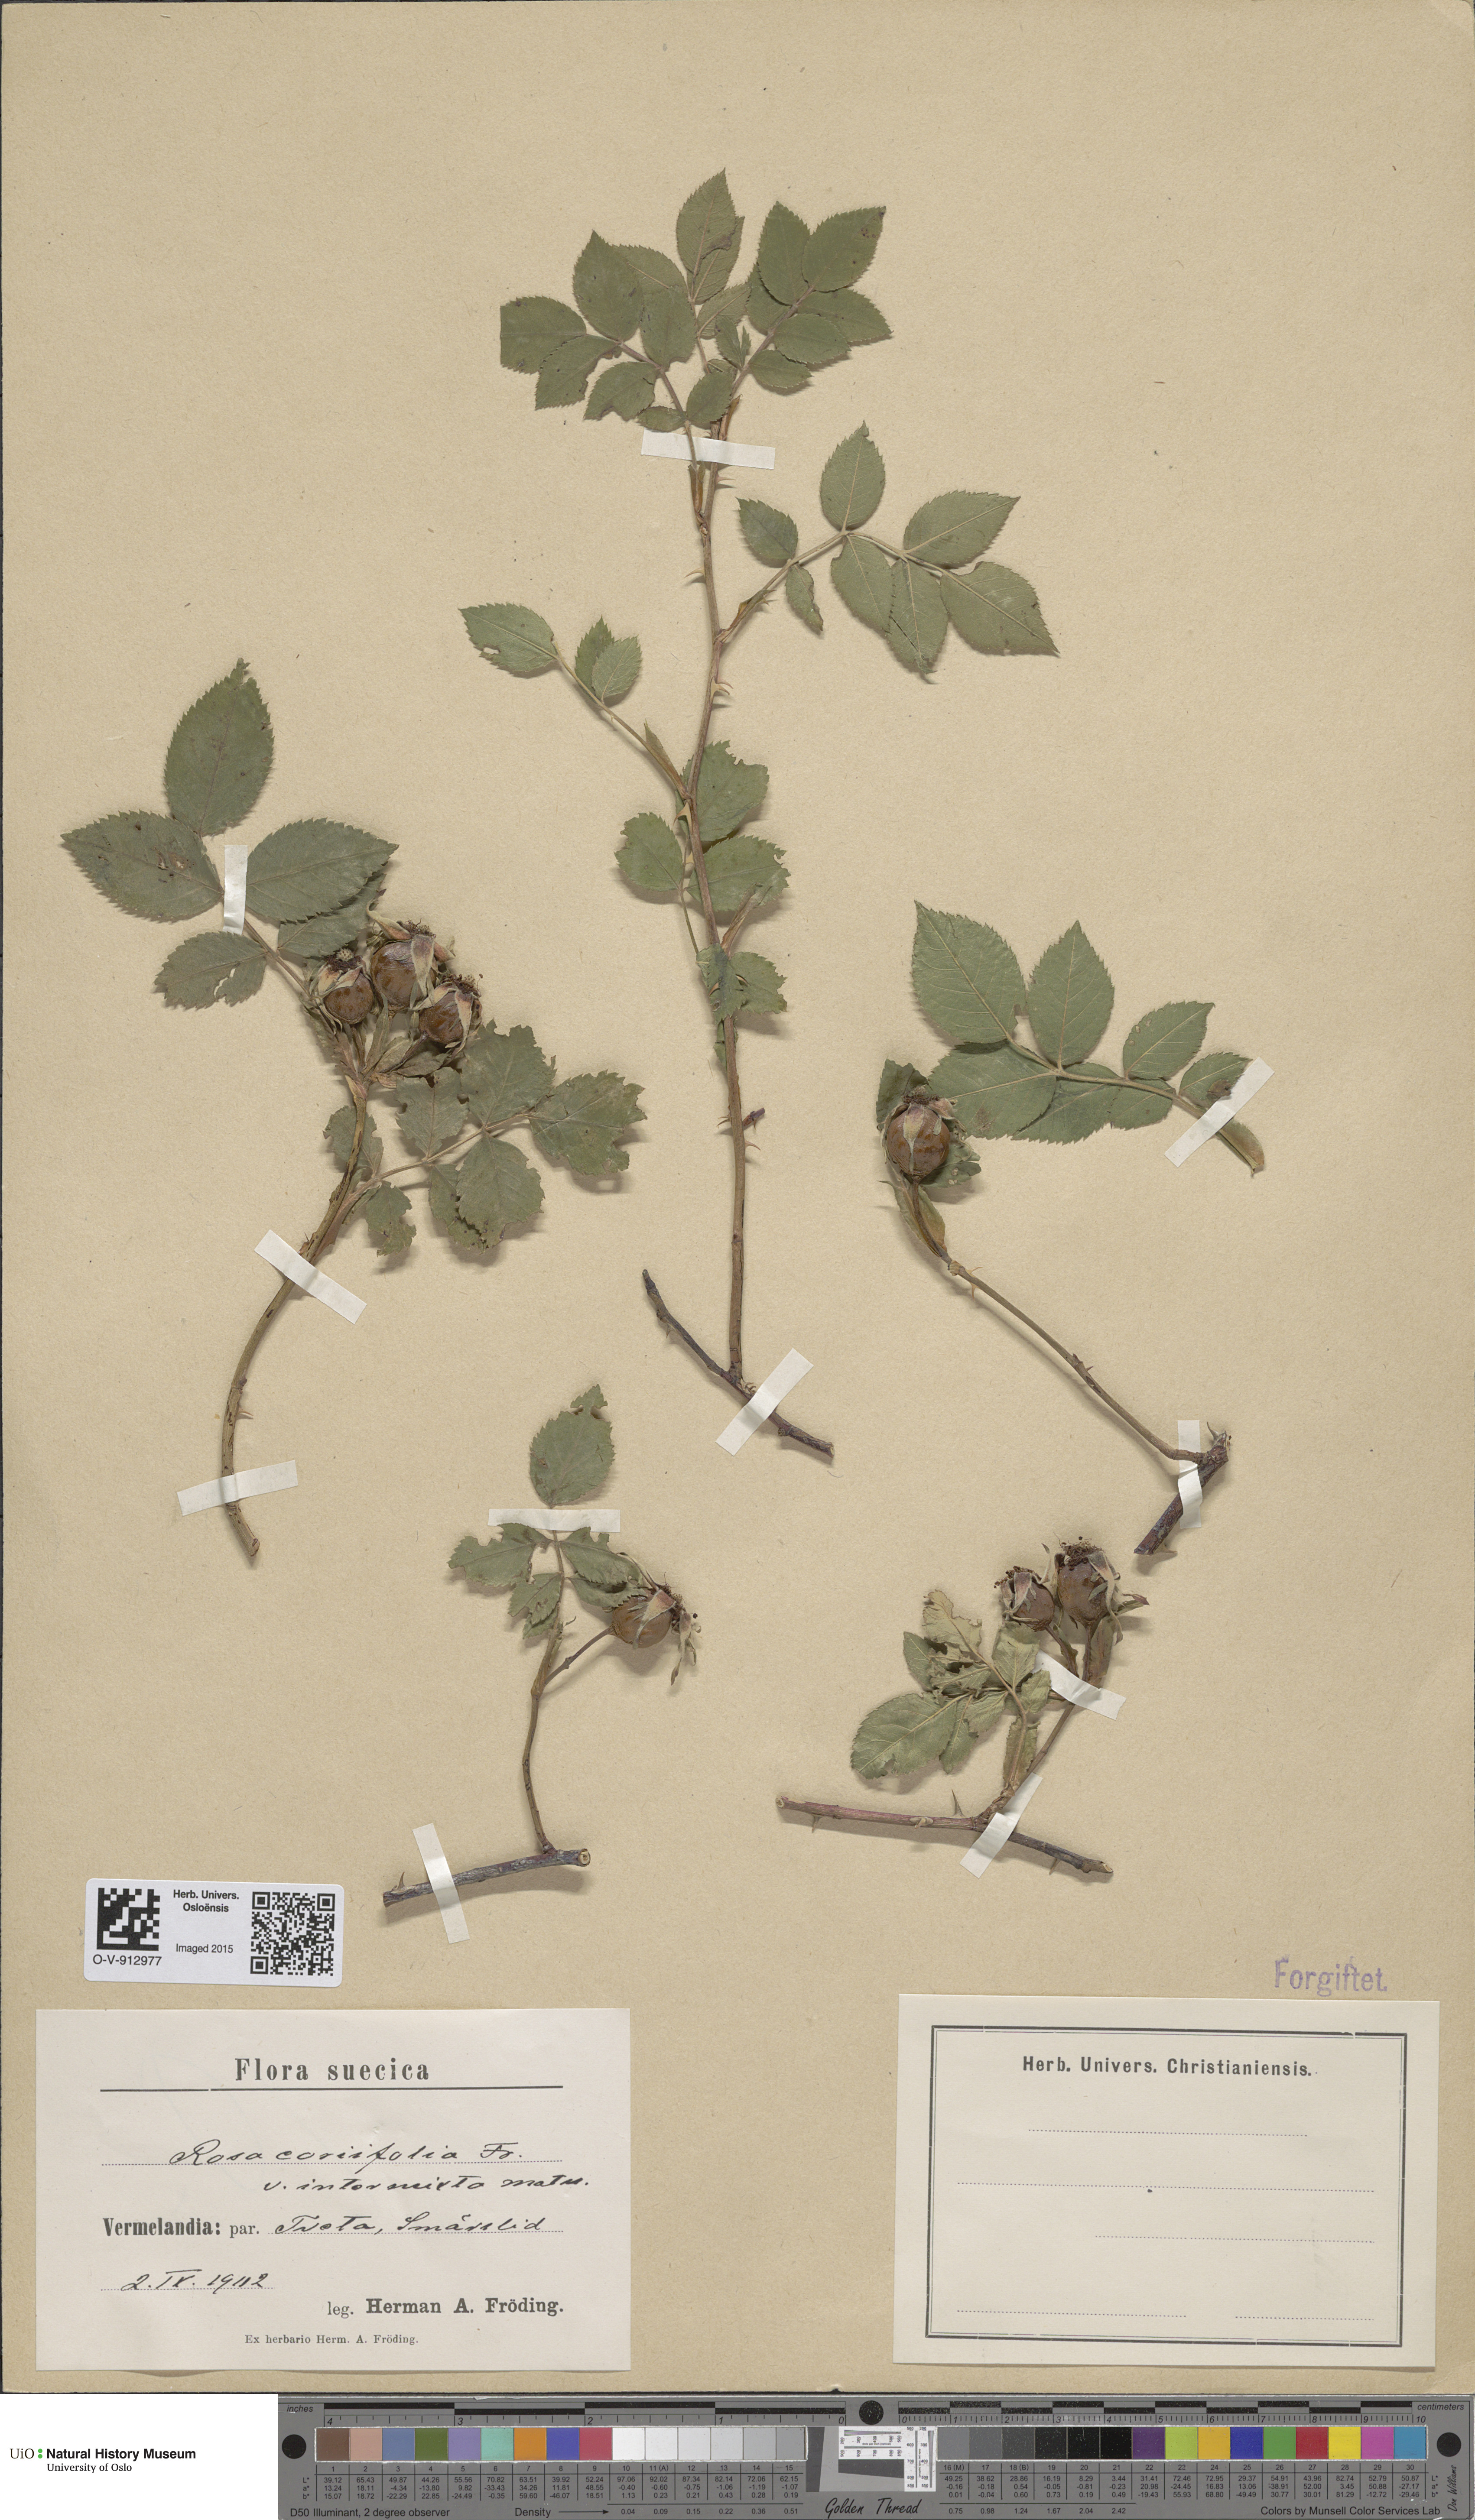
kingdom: Plantae
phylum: Tracheophyta
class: Magnoliopsida
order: Rosales
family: Rosaceae
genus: Rosa
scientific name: Rosa caesia
